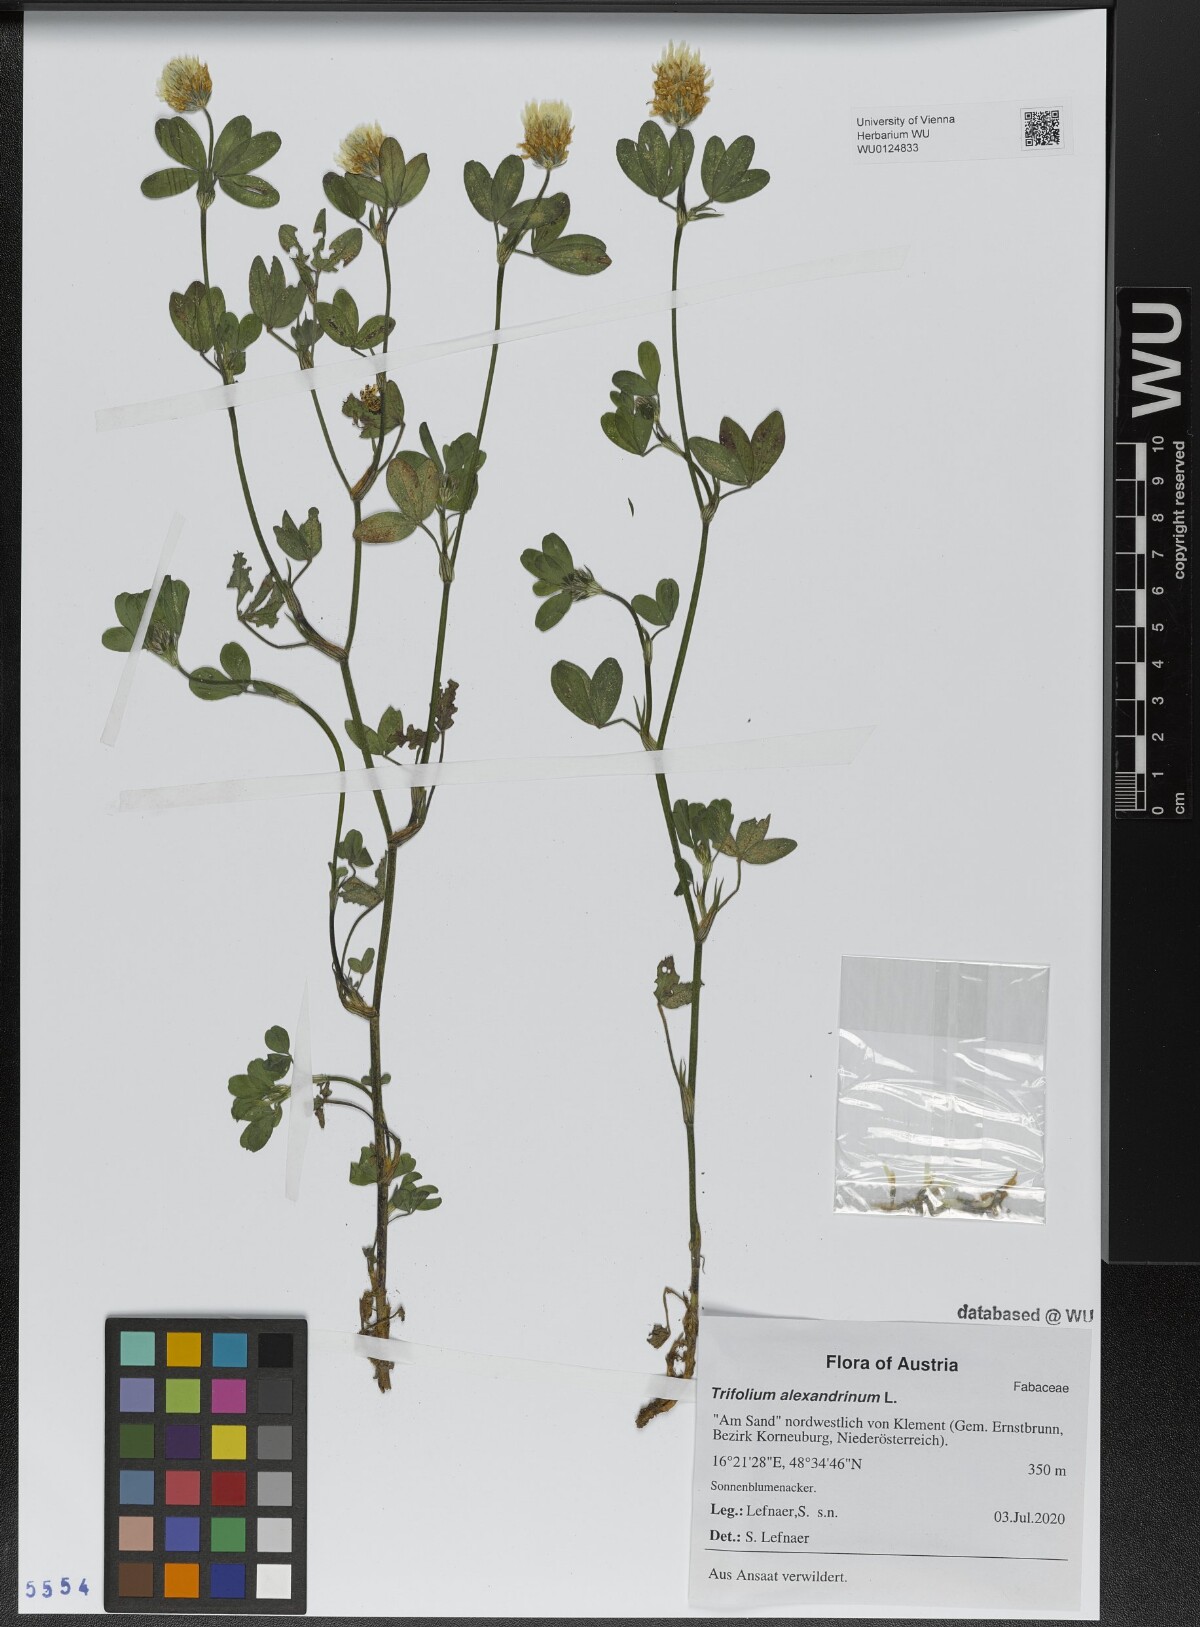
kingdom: Plantae
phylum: Tracheophyta
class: Magnoliopsida
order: Fabales
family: Fabaceae
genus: Trifolium
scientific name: Trifolium alexandrinum
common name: Egyptian clover
